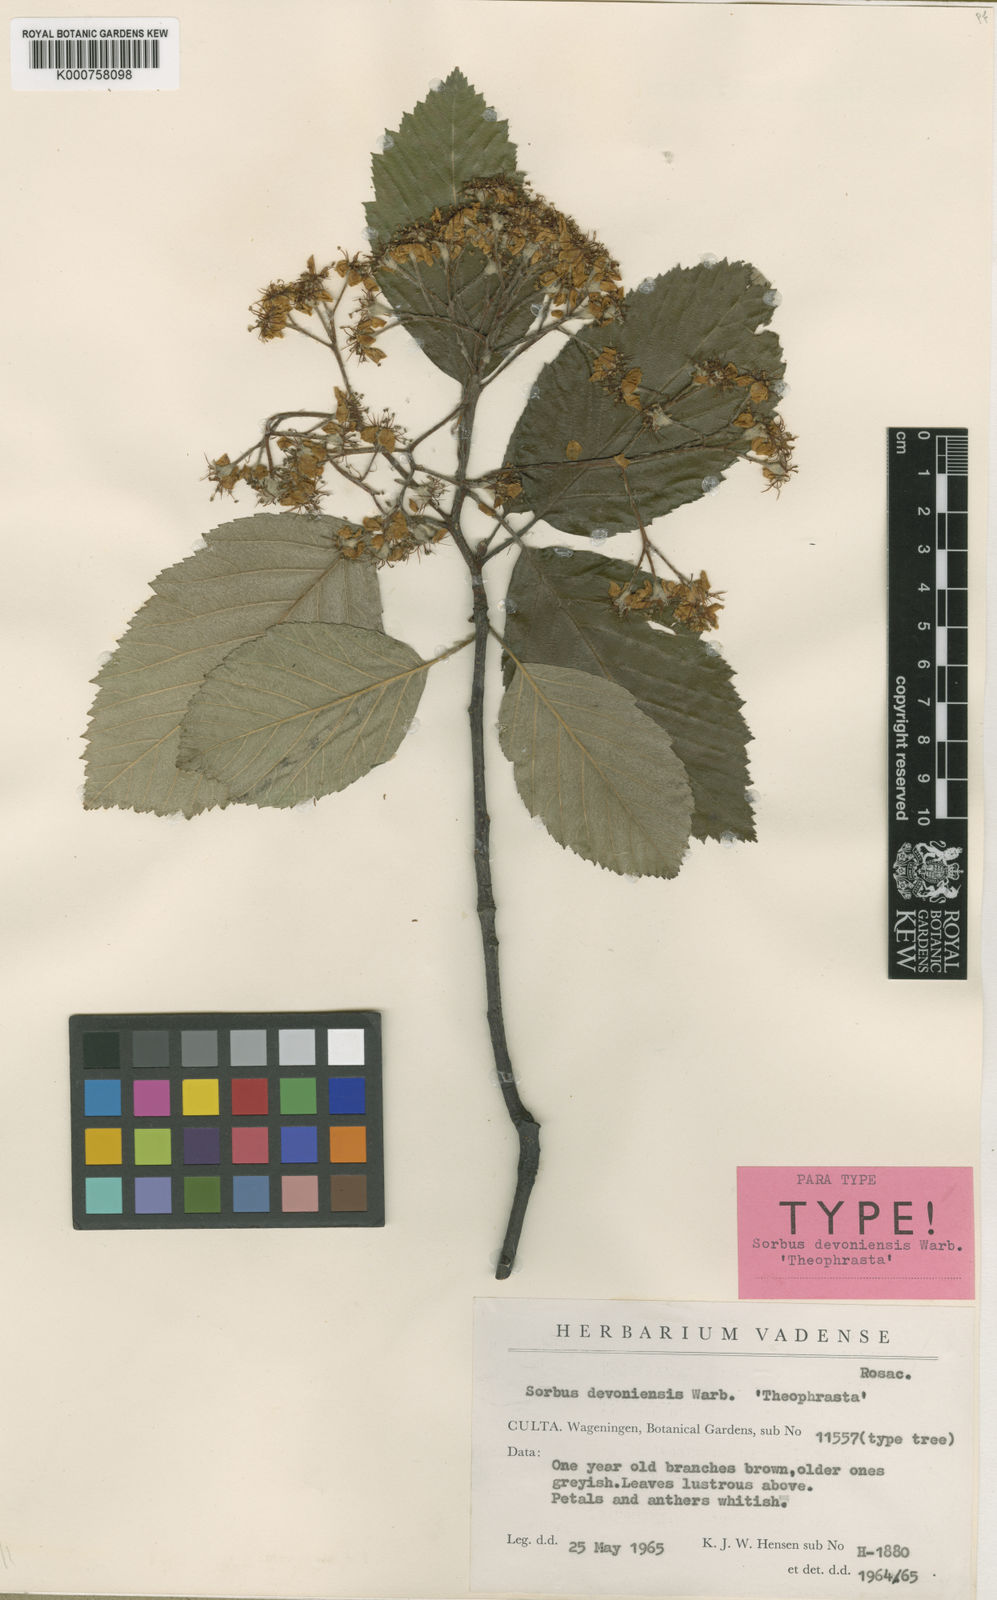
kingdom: Plantae
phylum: Tracheophyta
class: Magnoliopsida
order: Rosales
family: Rosaceae
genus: Karpatiosorbus
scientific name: Karpatiosorbus devoniensis
